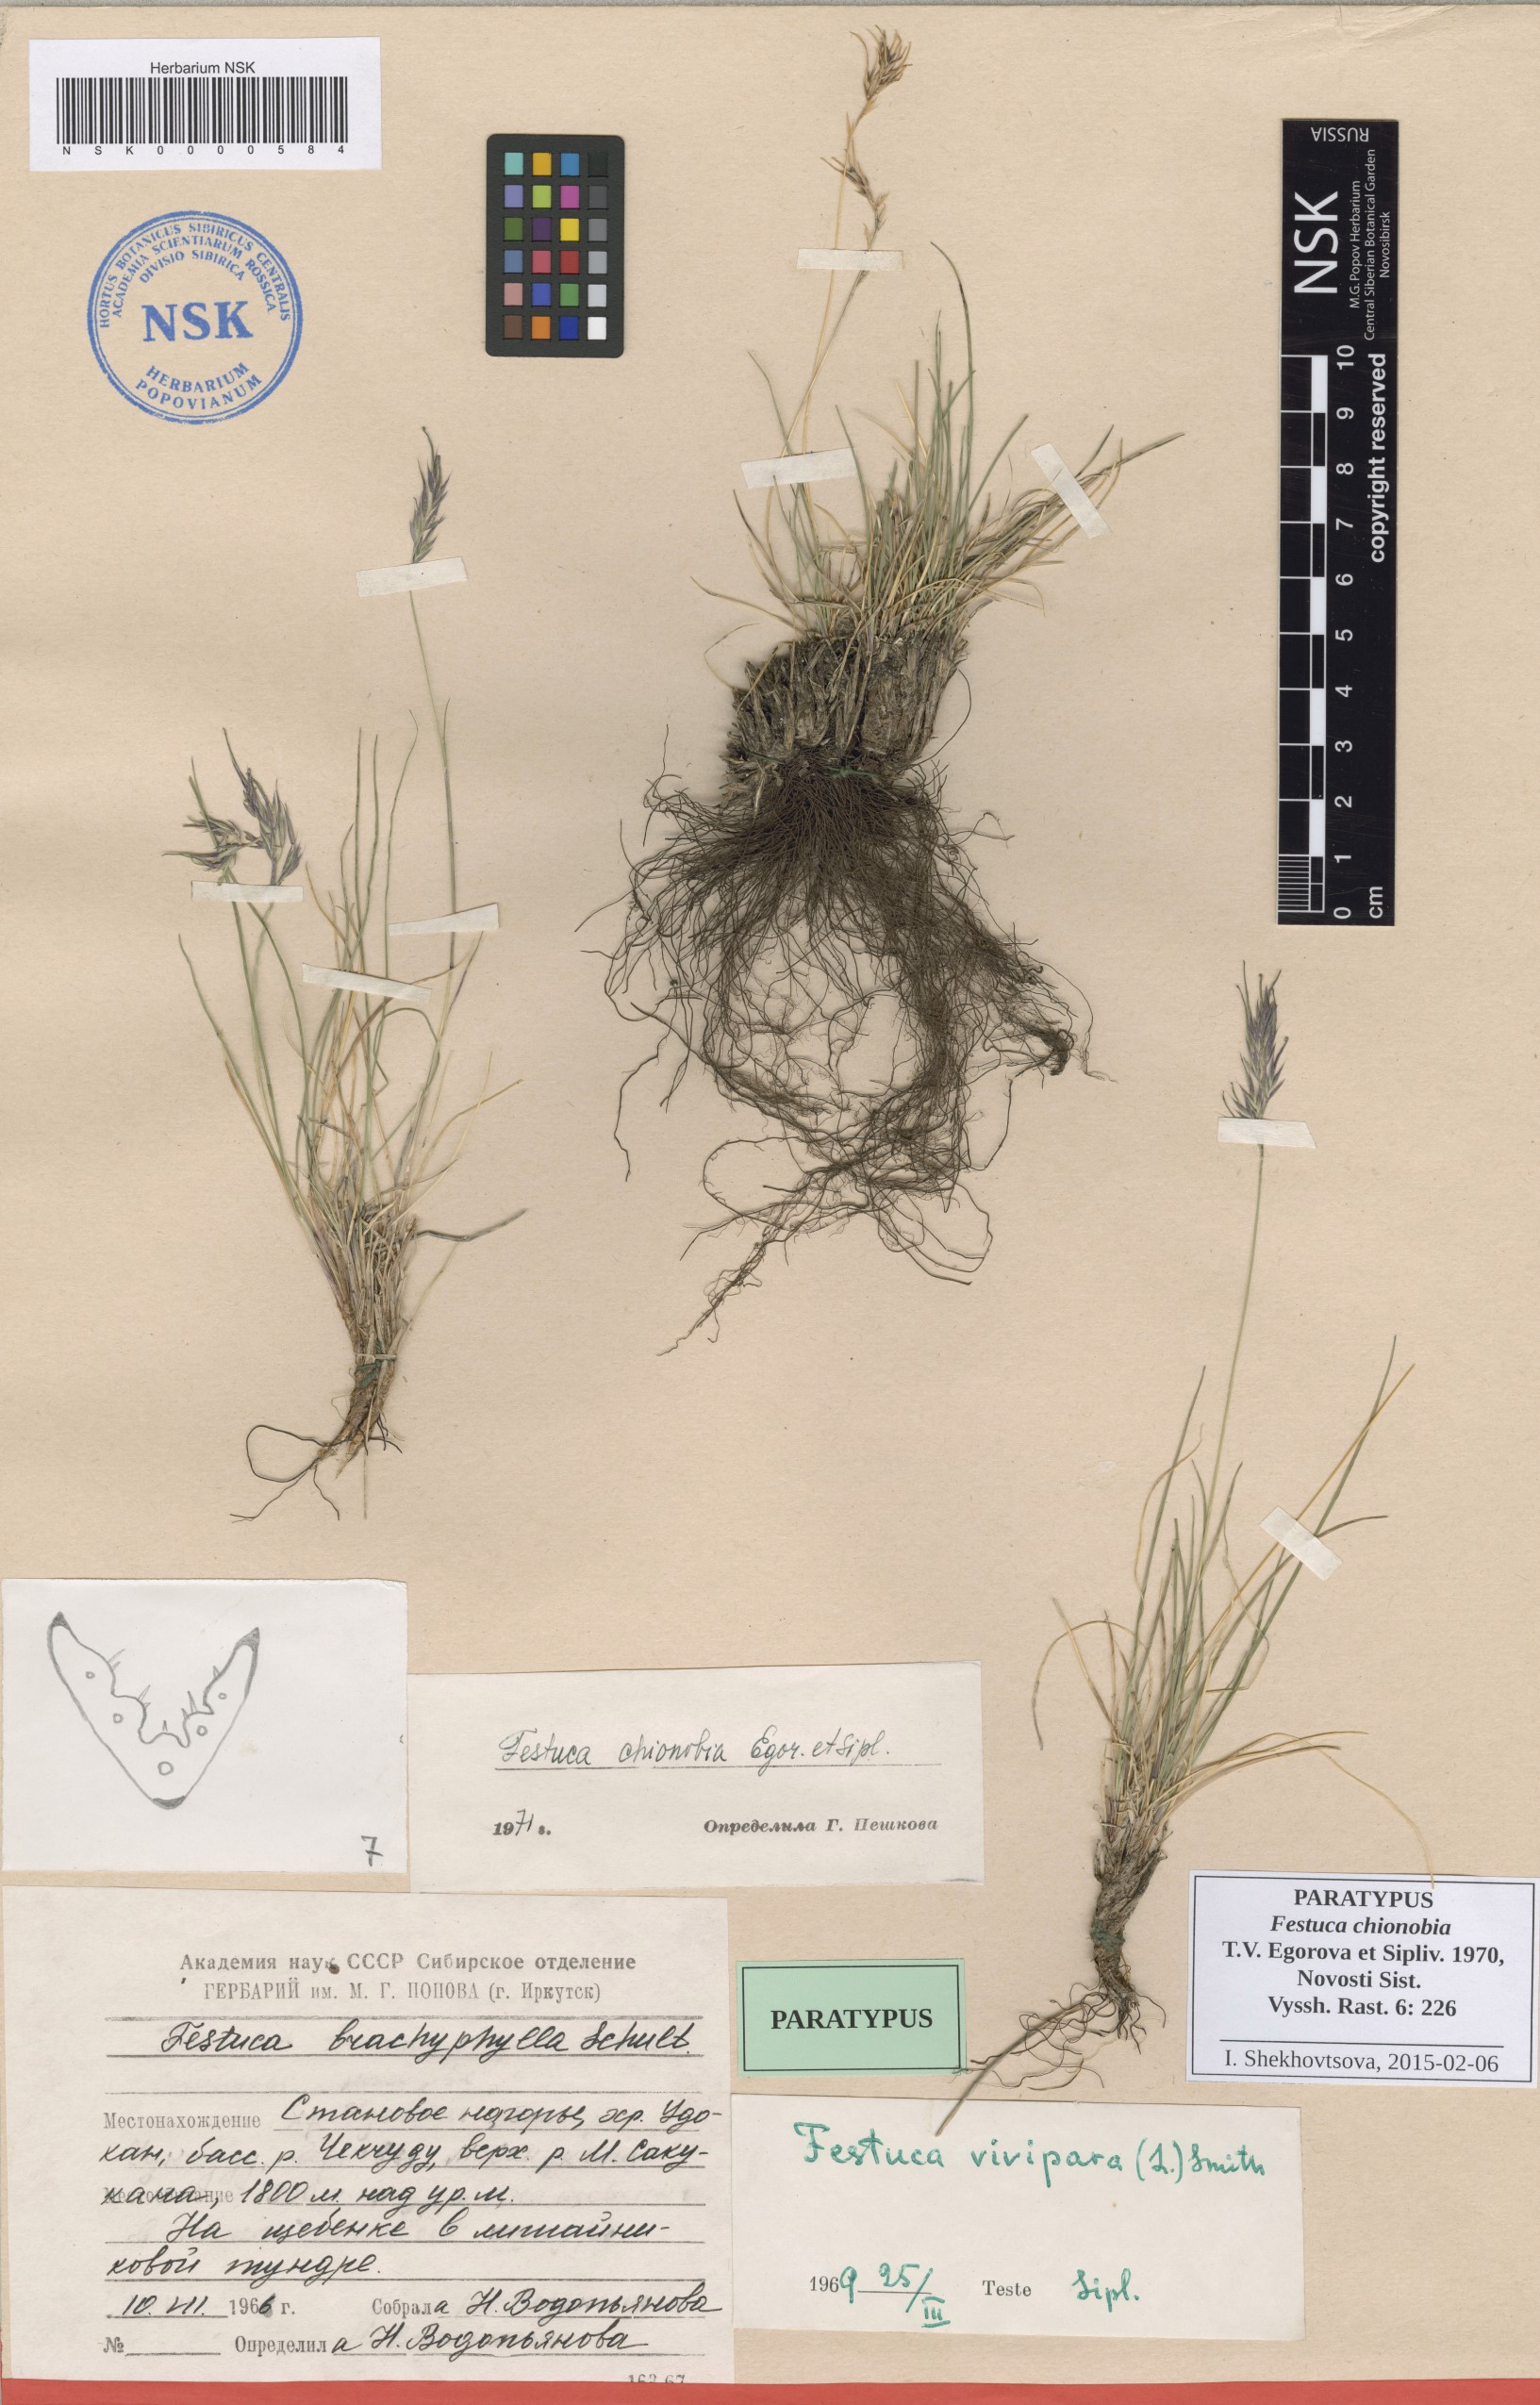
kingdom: Plantae
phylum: Tracheophyta
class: Liliopsida
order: Poales
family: Poaceae
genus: Festuca
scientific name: Festuca auriculata
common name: Eared fescue
